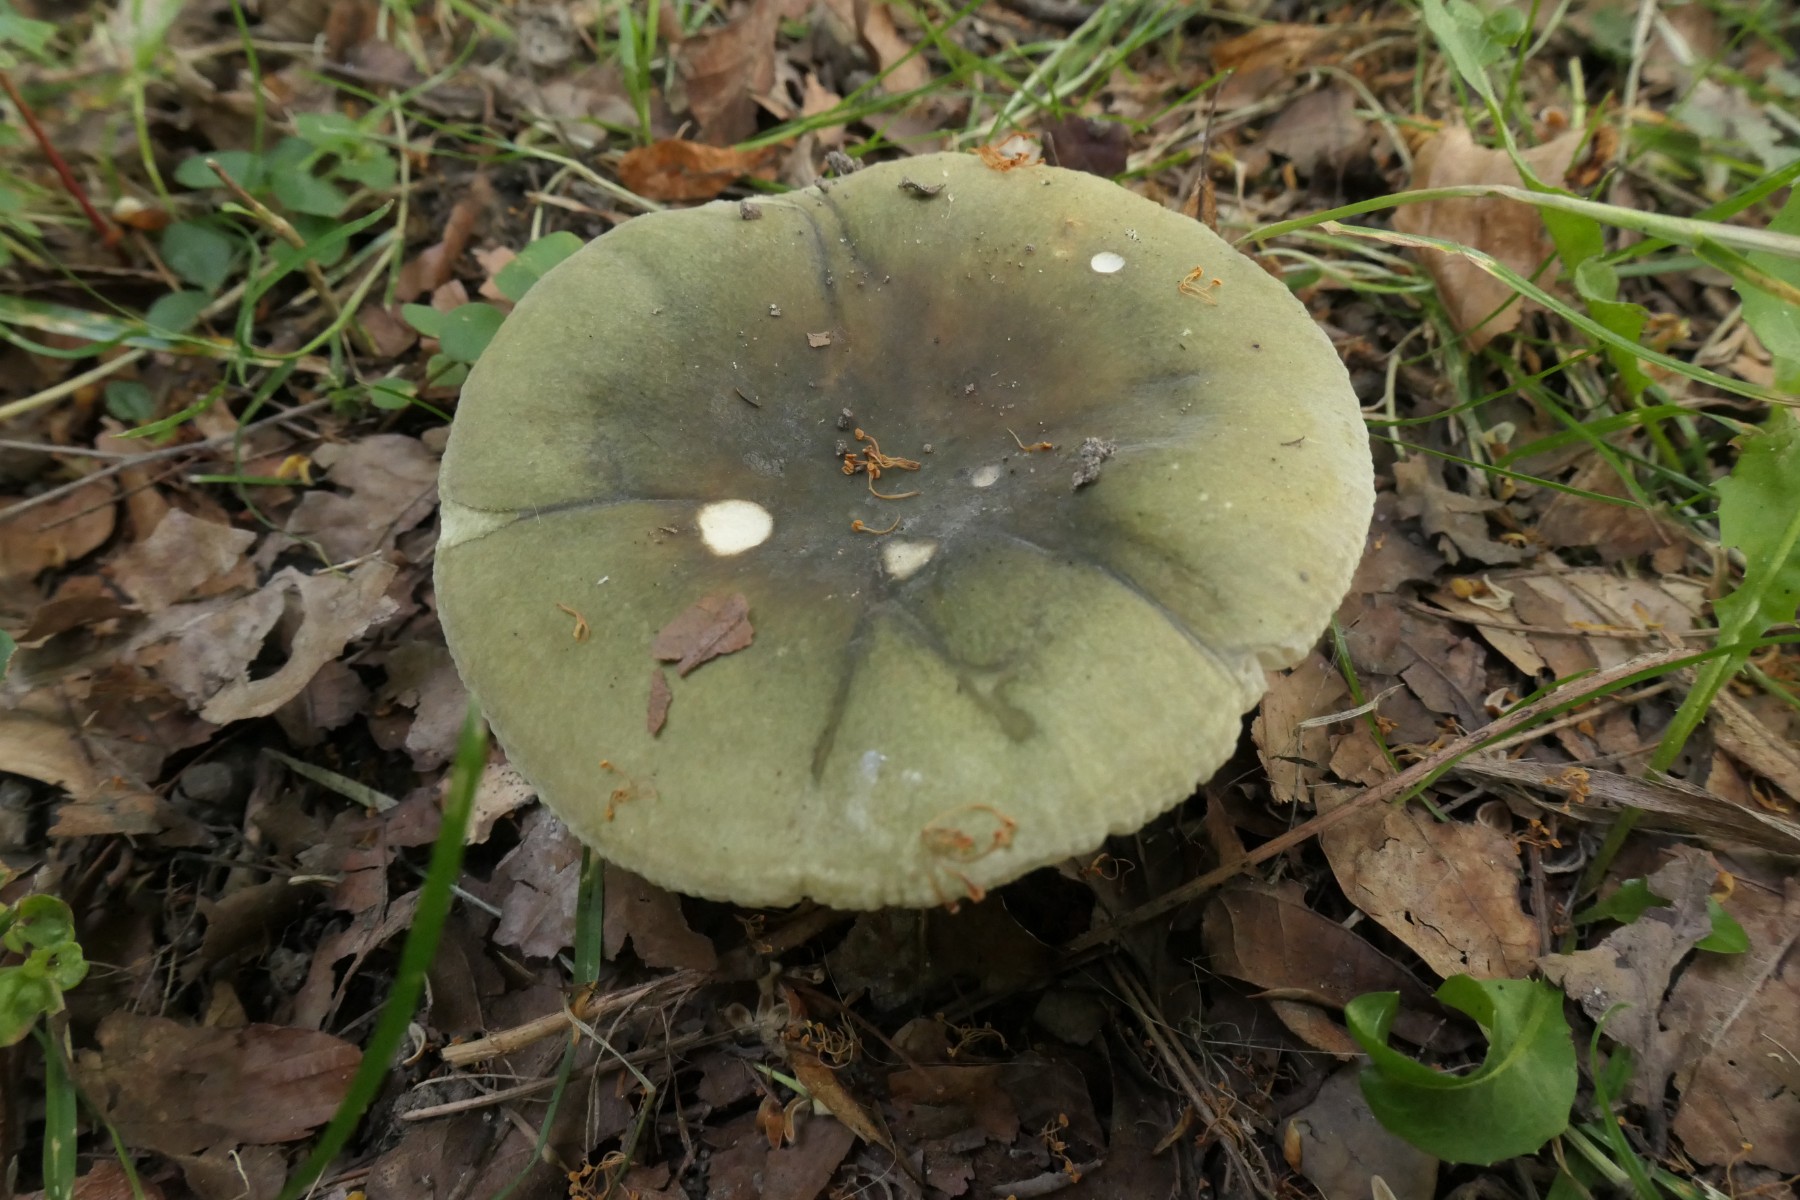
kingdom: Fungi
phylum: Basidiomycota
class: Agaricomycetes
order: Russulales
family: Russulaceae
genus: Russula
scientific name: Russula heterophylla
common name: gaffelbladet skørhat
